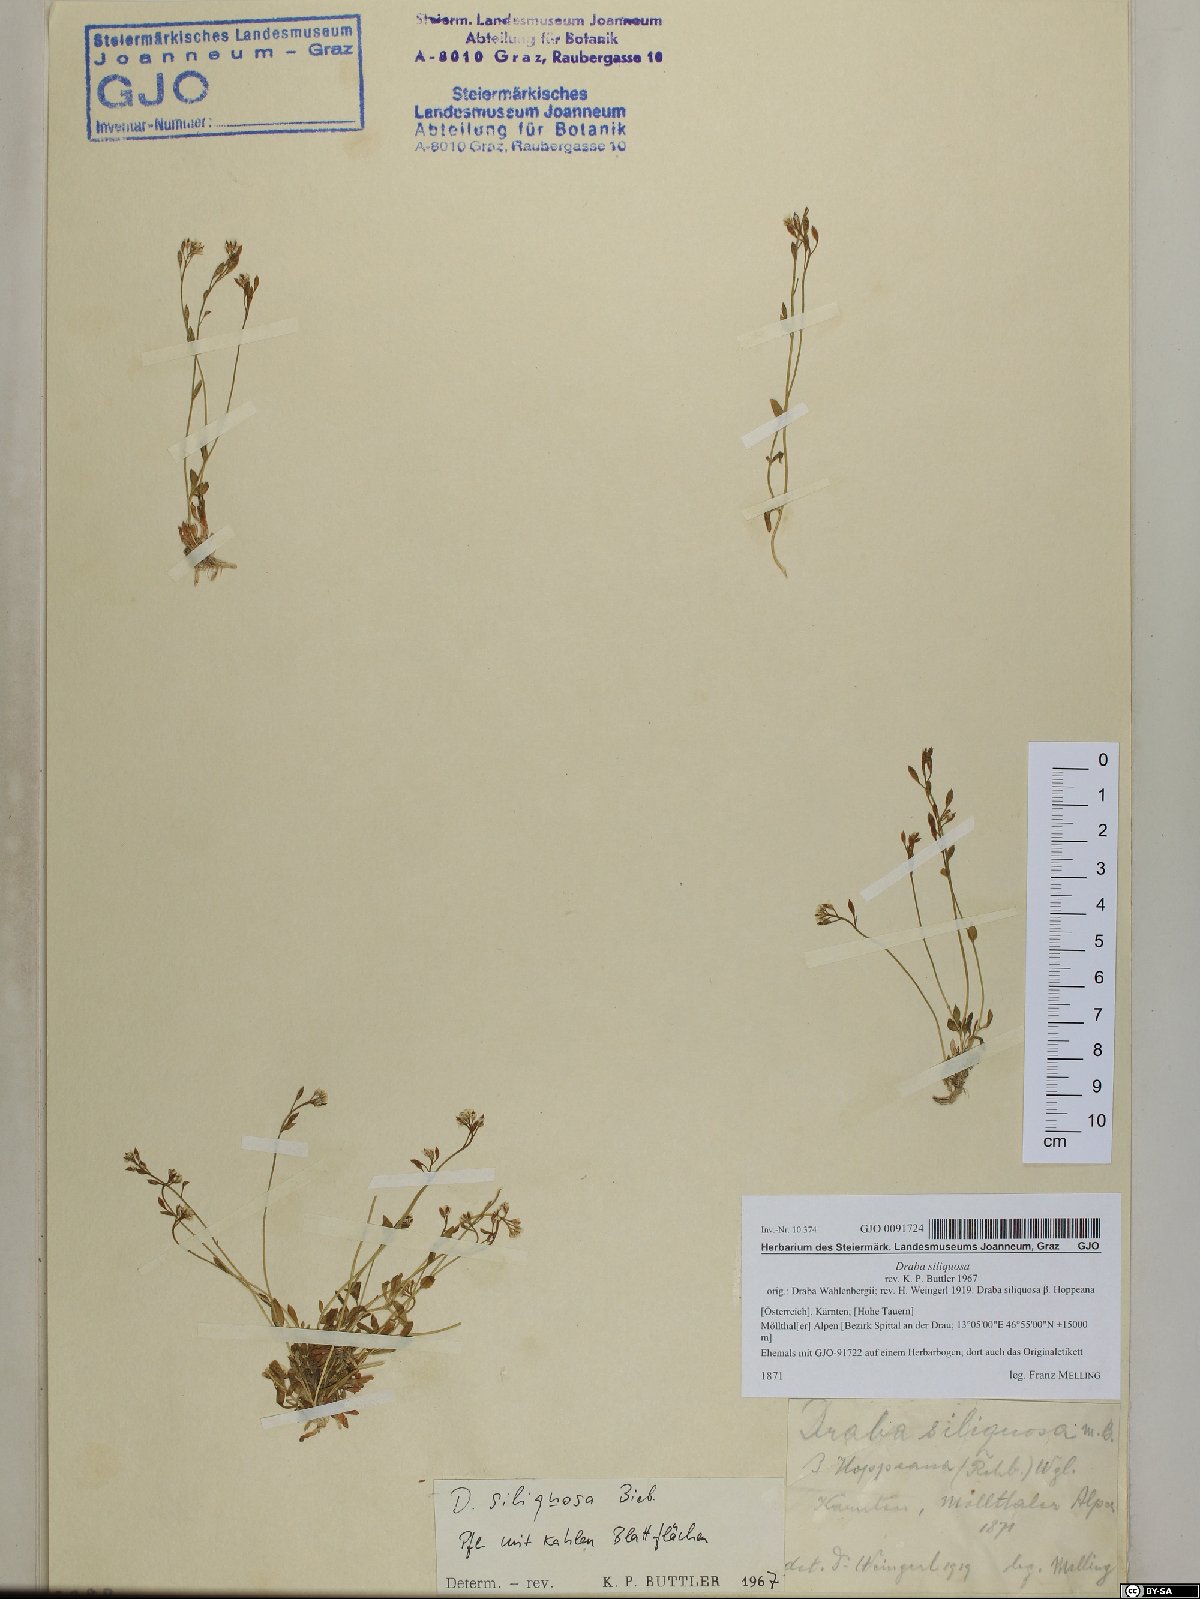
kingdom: Plantae
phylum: Tracheophyta
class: Magnoliopsida
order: Brassicales
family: Brassicaceae
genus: Draba
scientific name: Draba siliquosa
